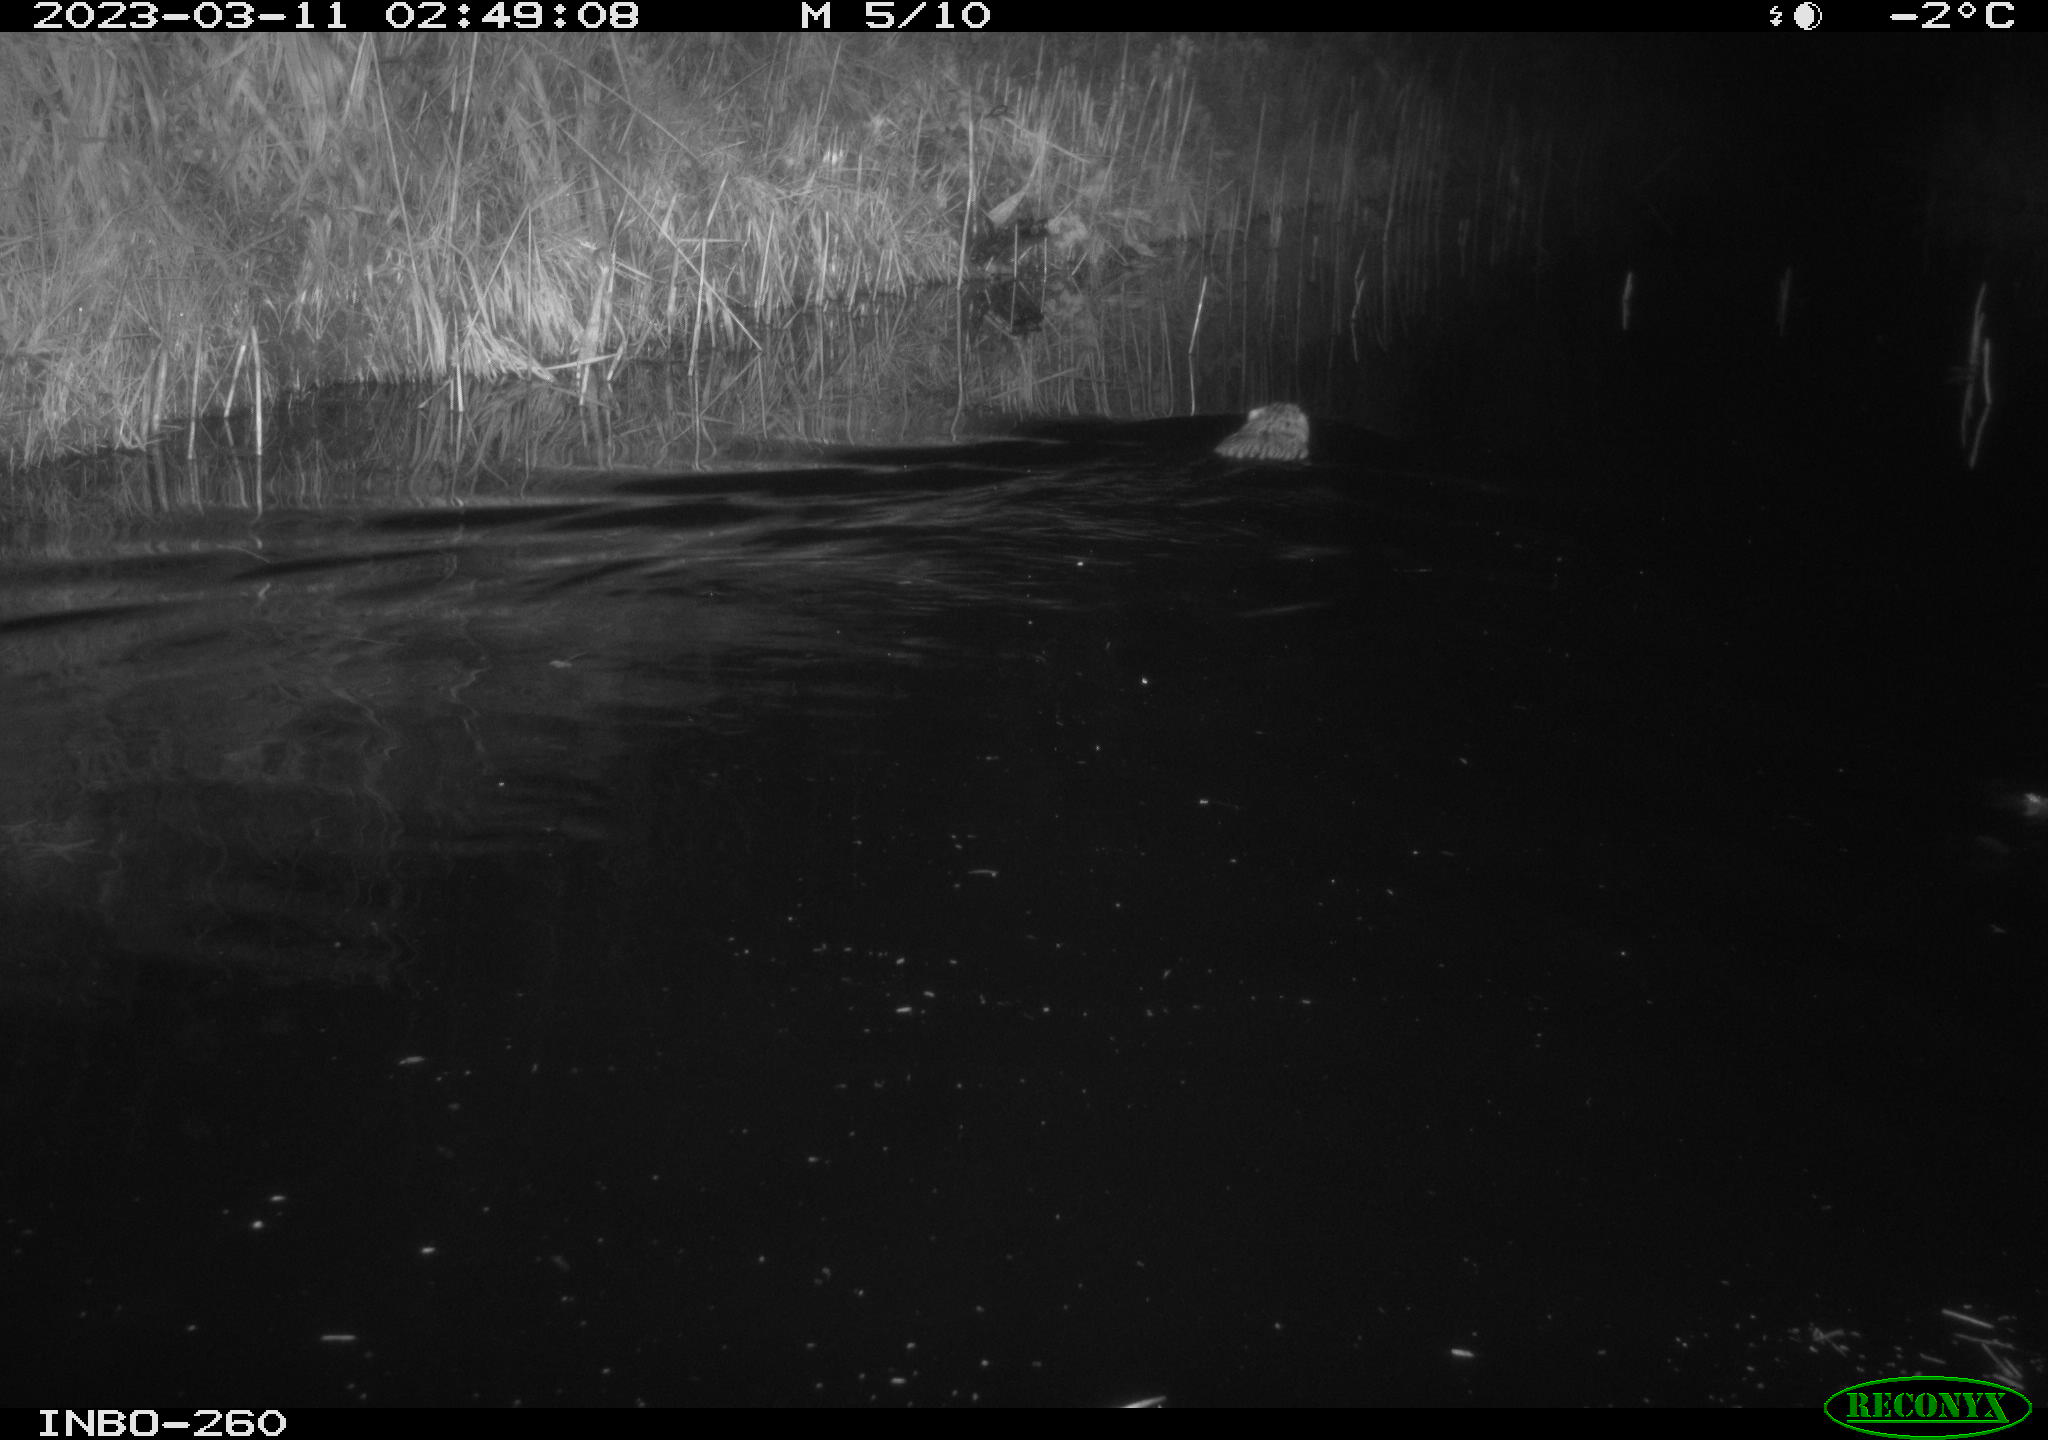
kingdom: Animalia
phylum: Chordata
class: Mammalia
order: Rodentia
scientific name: Rodentia
